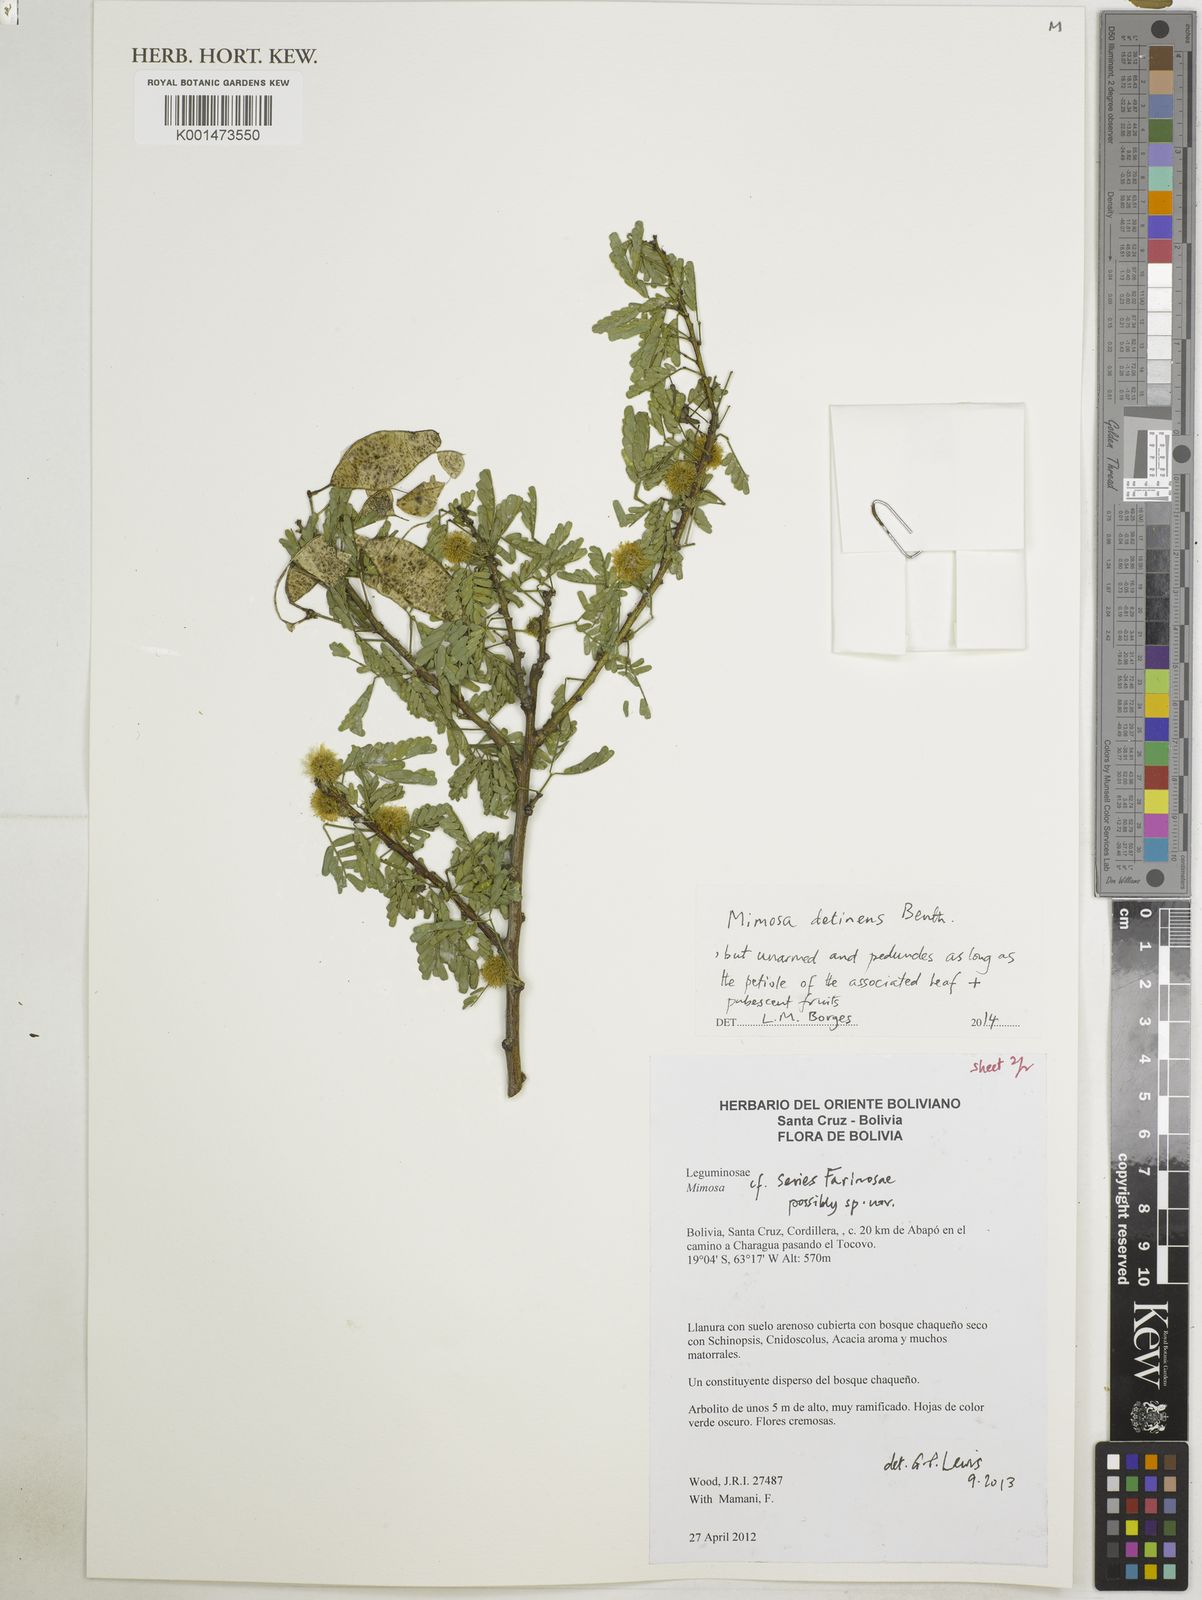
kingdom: Plantae
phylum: Tracheophyta
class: Magnoliopsida
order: Fabales
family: Fabaceae
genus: Mimosa
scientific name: Mimosa detinens
